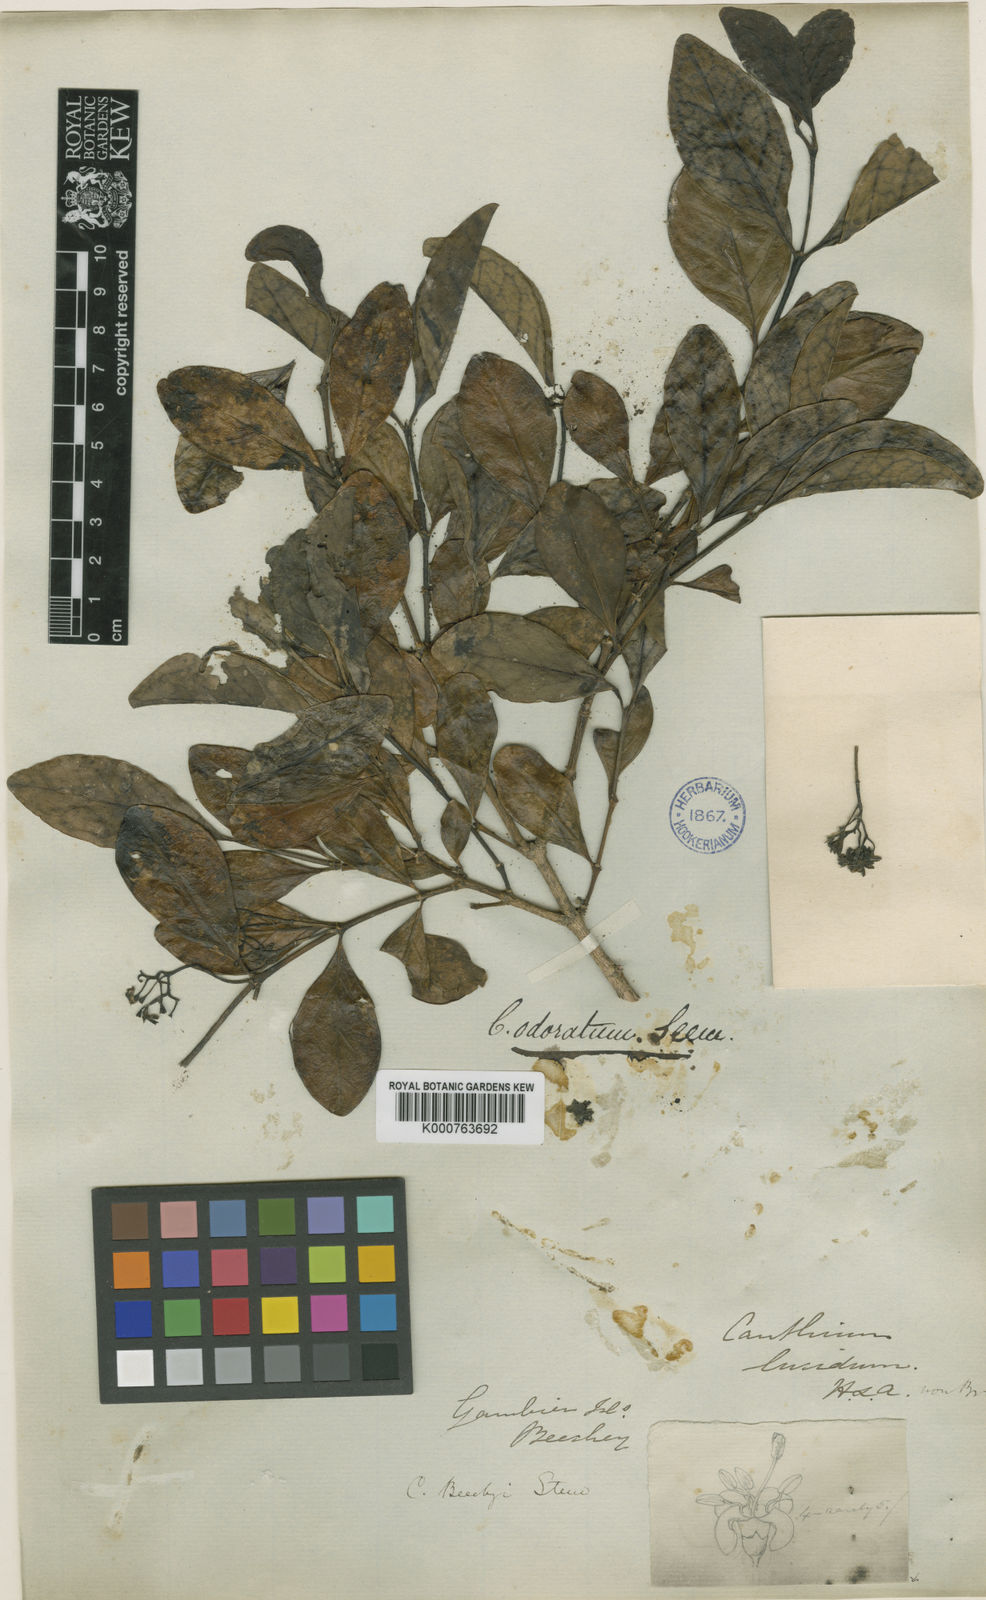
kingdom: Plantae
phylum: Tracheophyta
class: Magnoliopsida
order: Gentianales
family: Rubiaceae
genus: Psydrax
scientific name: Psydrax odoratus
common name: Alahe'e
